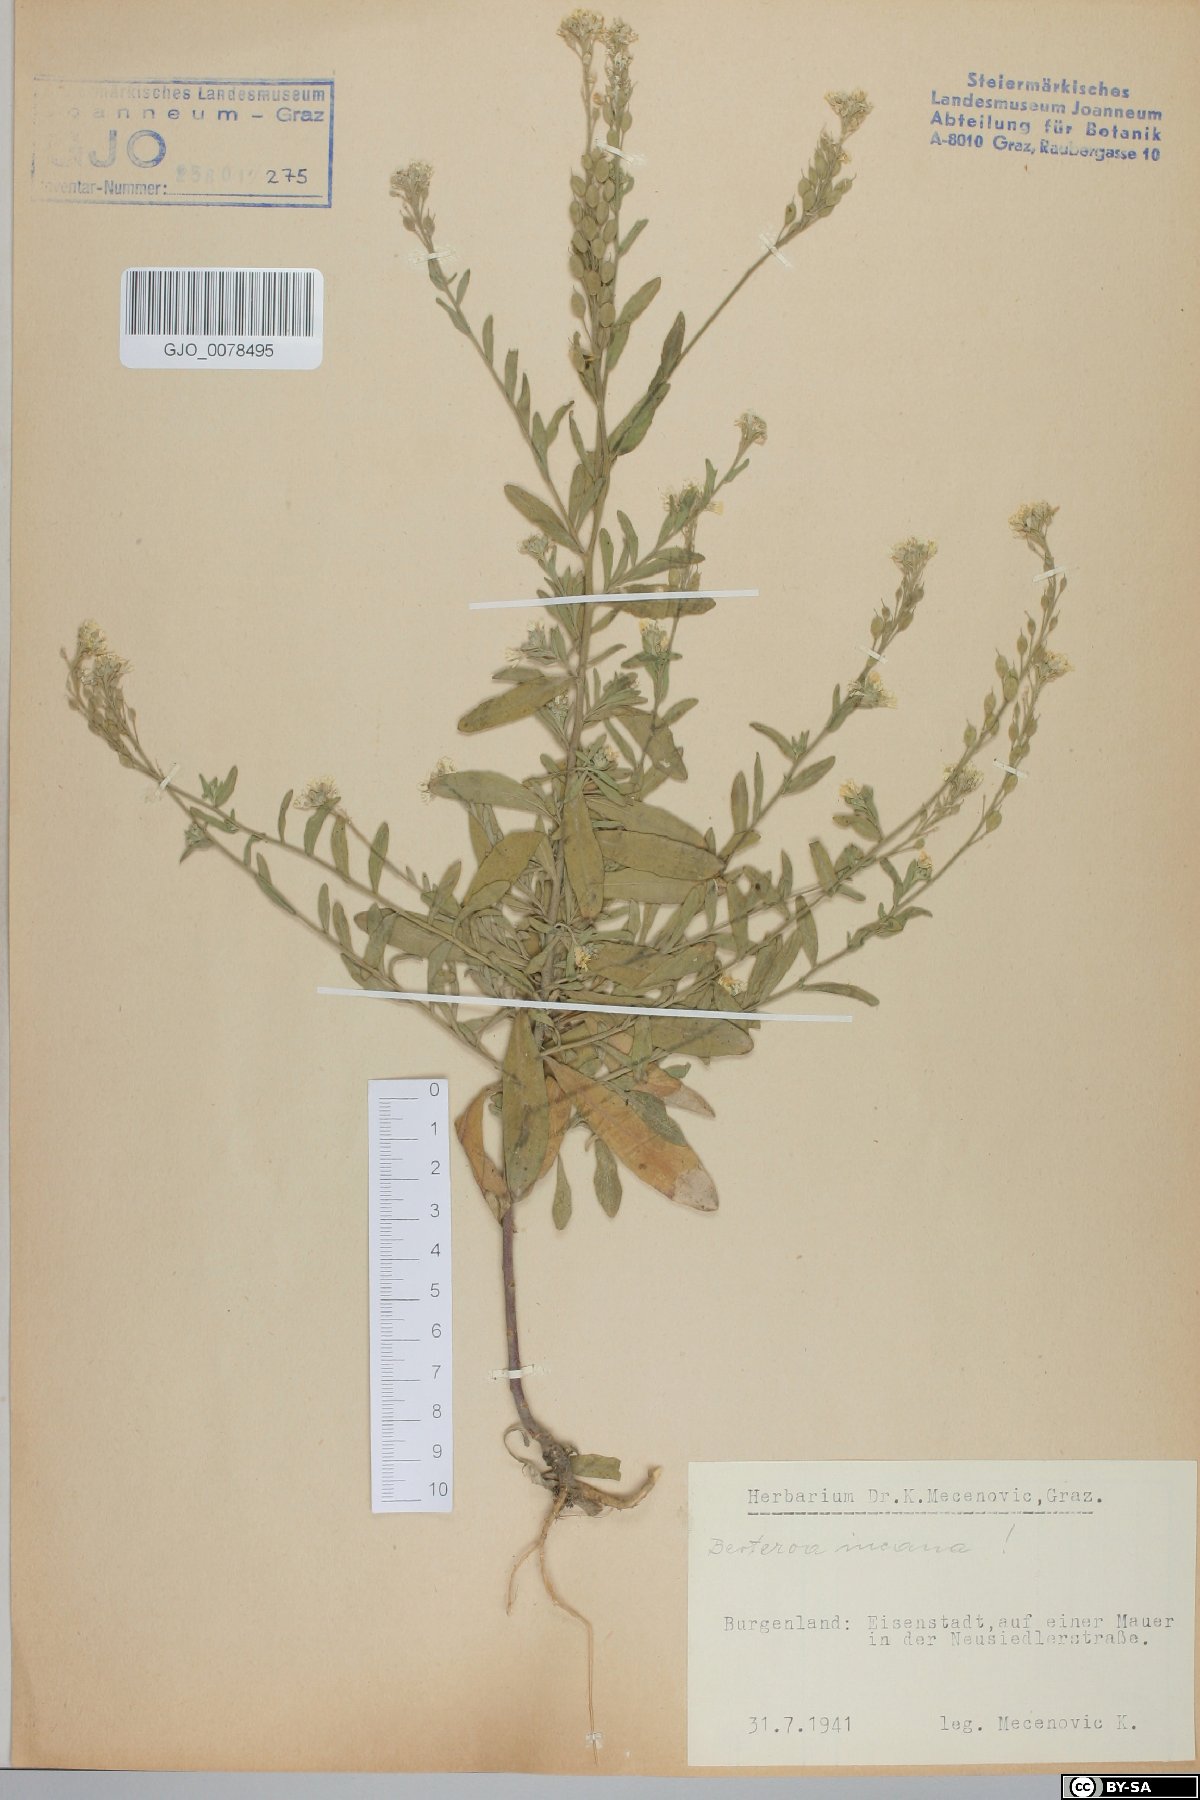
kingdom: Plantae
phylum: Tracheophyta
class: Magnoliopsida
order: Brassicales
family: Brassicaceae
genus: Berteroa
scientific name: Berteroa incana
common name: Hoary alison
